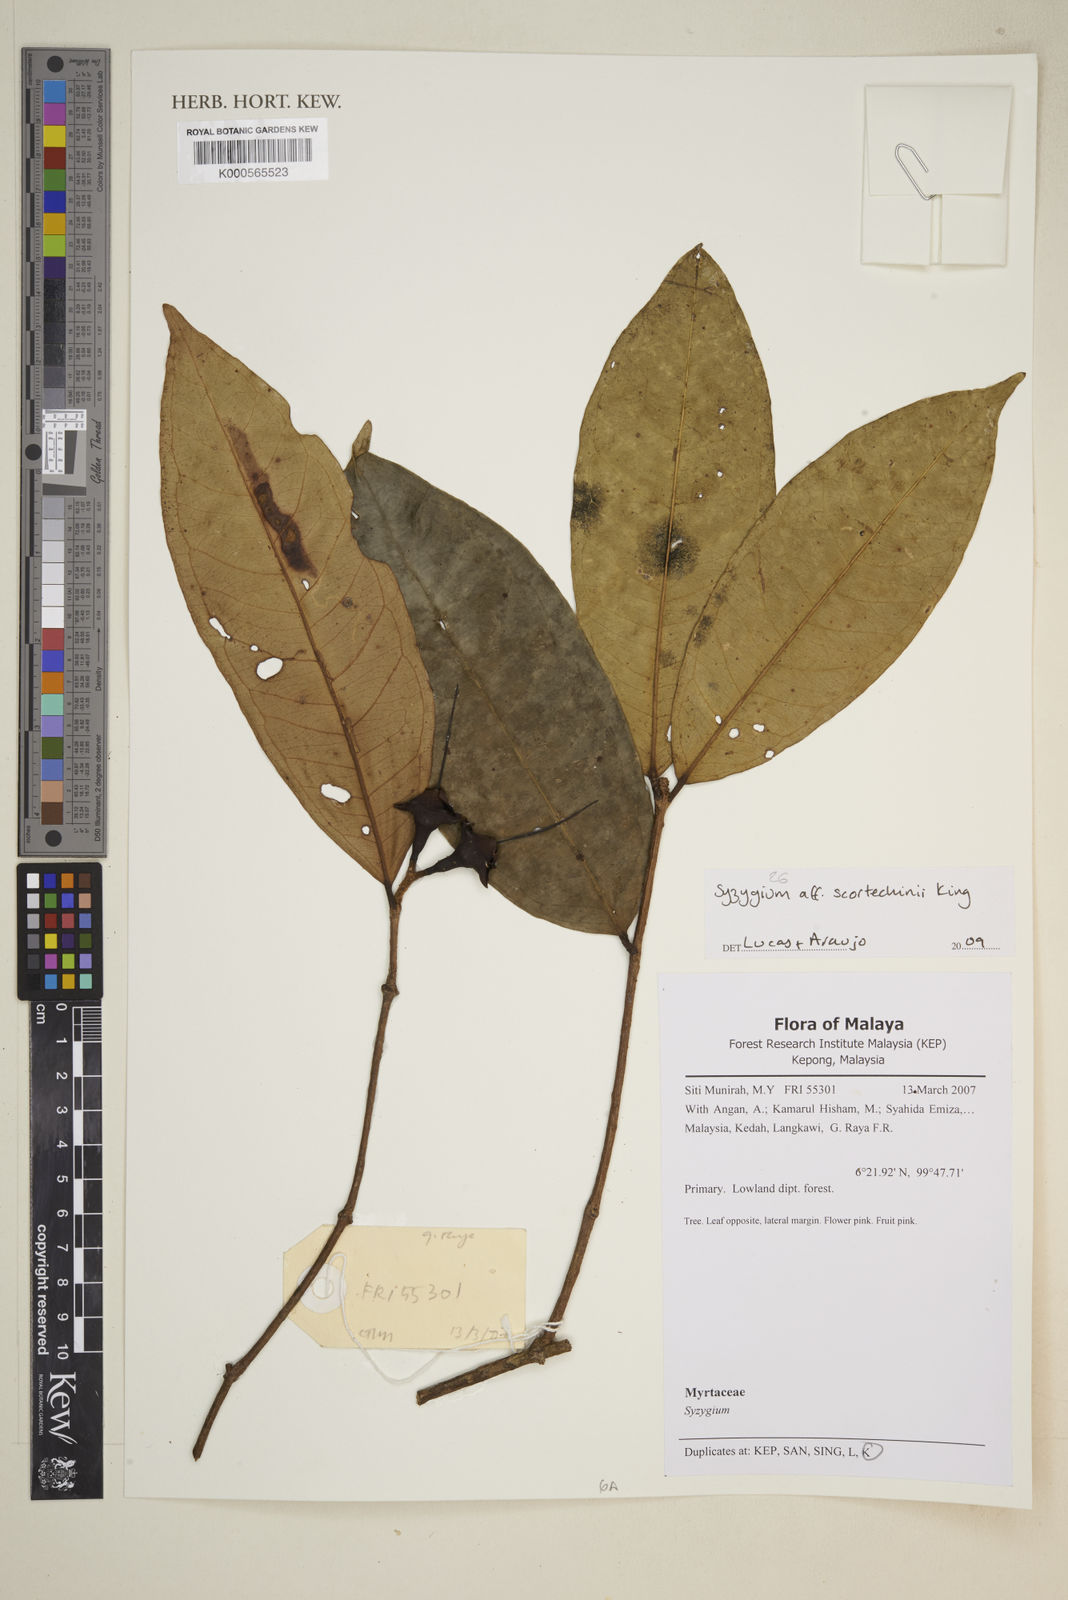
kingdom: Plantae
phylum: Tracheophyta
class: Magnoliopsida
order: Myrtales
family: Myrtaceae
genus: Syzygium
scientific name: Syzygium scortechinii
